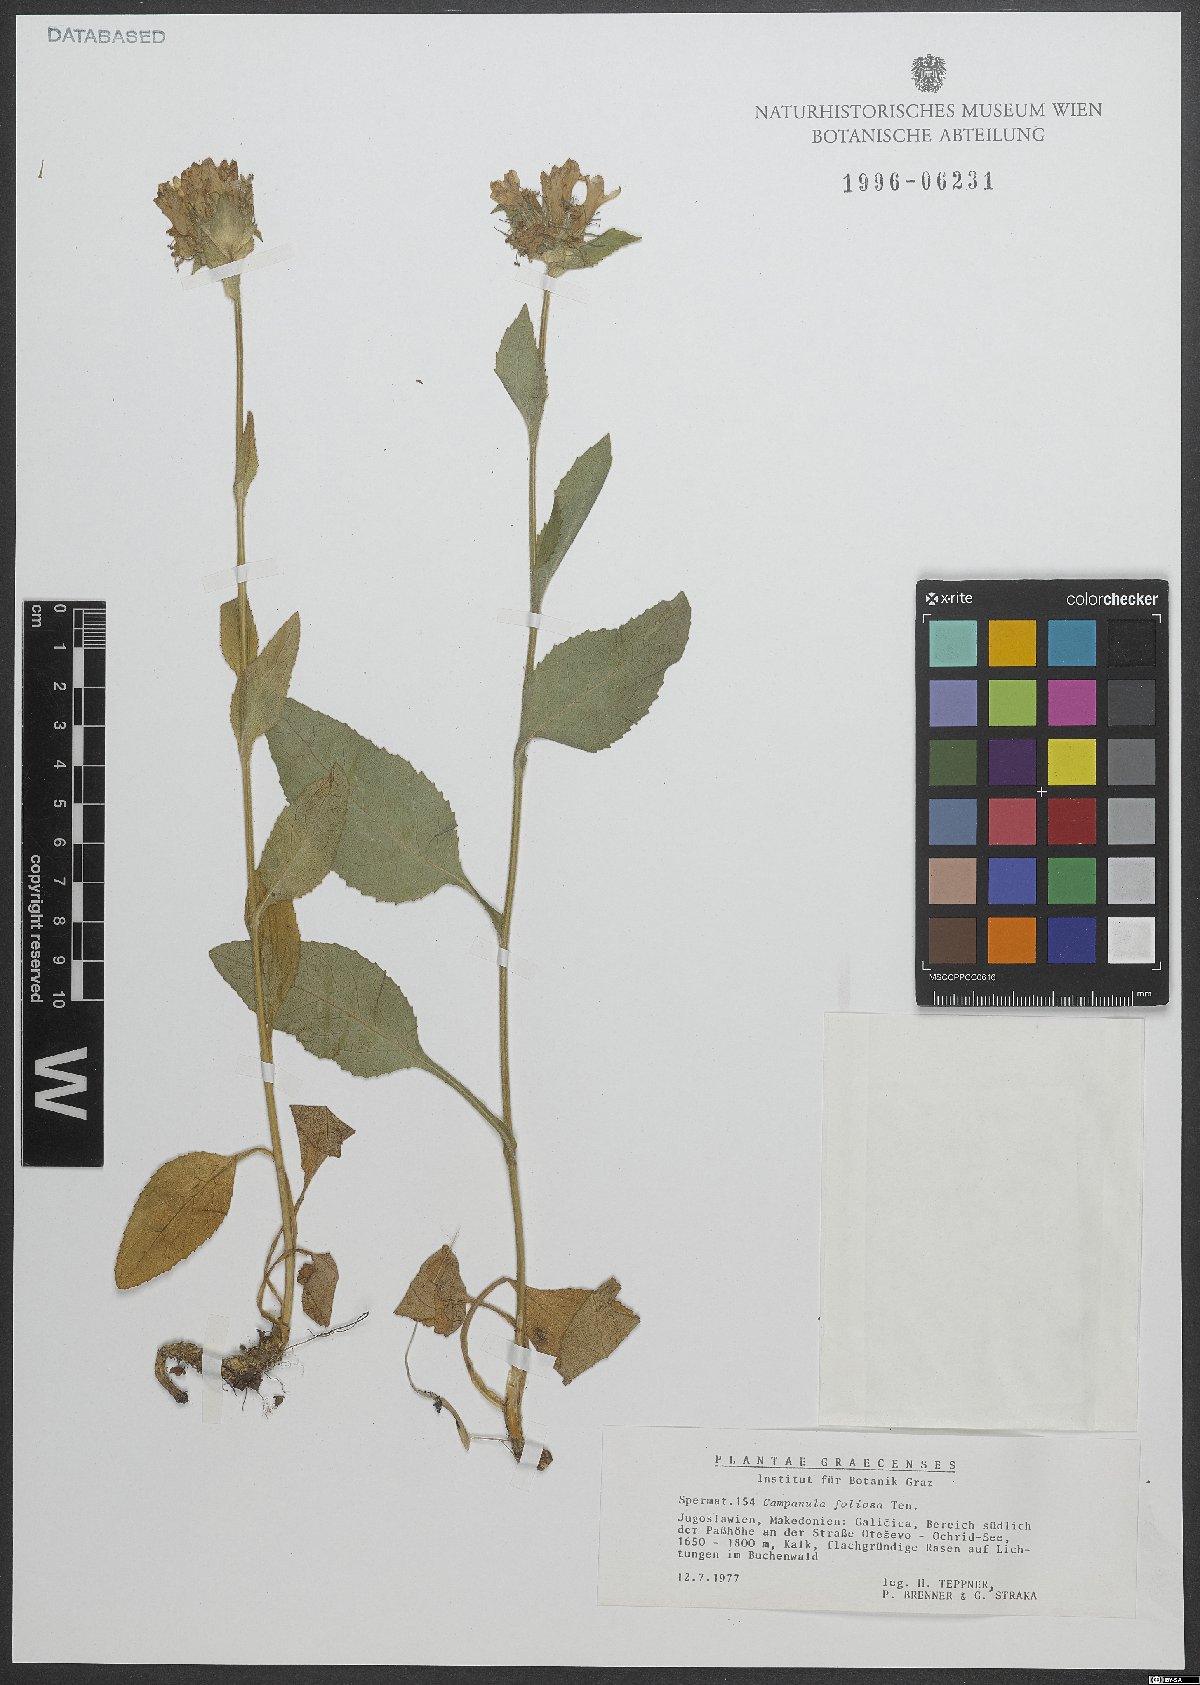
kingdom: Plantae
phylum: Tracheophyta
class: Magnoliopsida
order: Asterales
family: Campanulaceae
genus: Campanula
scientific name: Campanula foliosa
